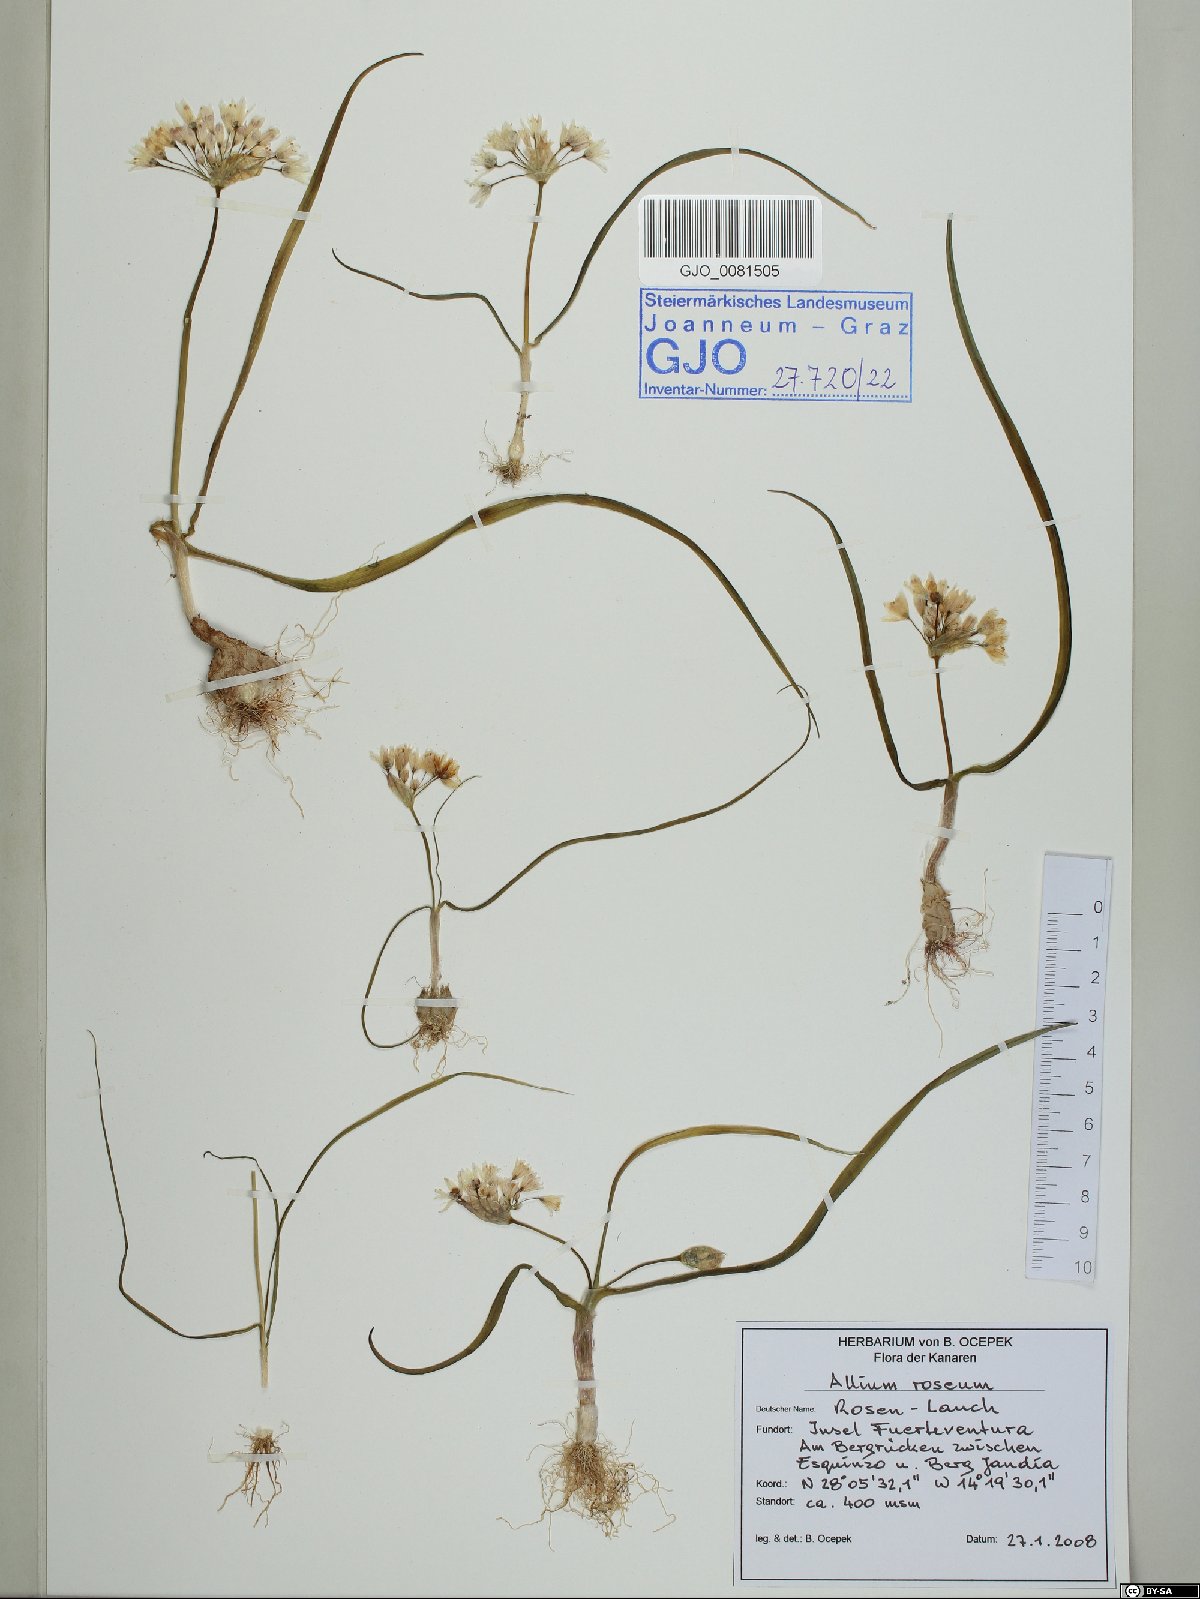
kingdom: Plantae
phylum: Tracheophyta
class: Liliopsida
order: Asparagales
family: Amaryllidaceae
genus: Allium
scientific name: Allium roseum
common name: Rosy garlic
